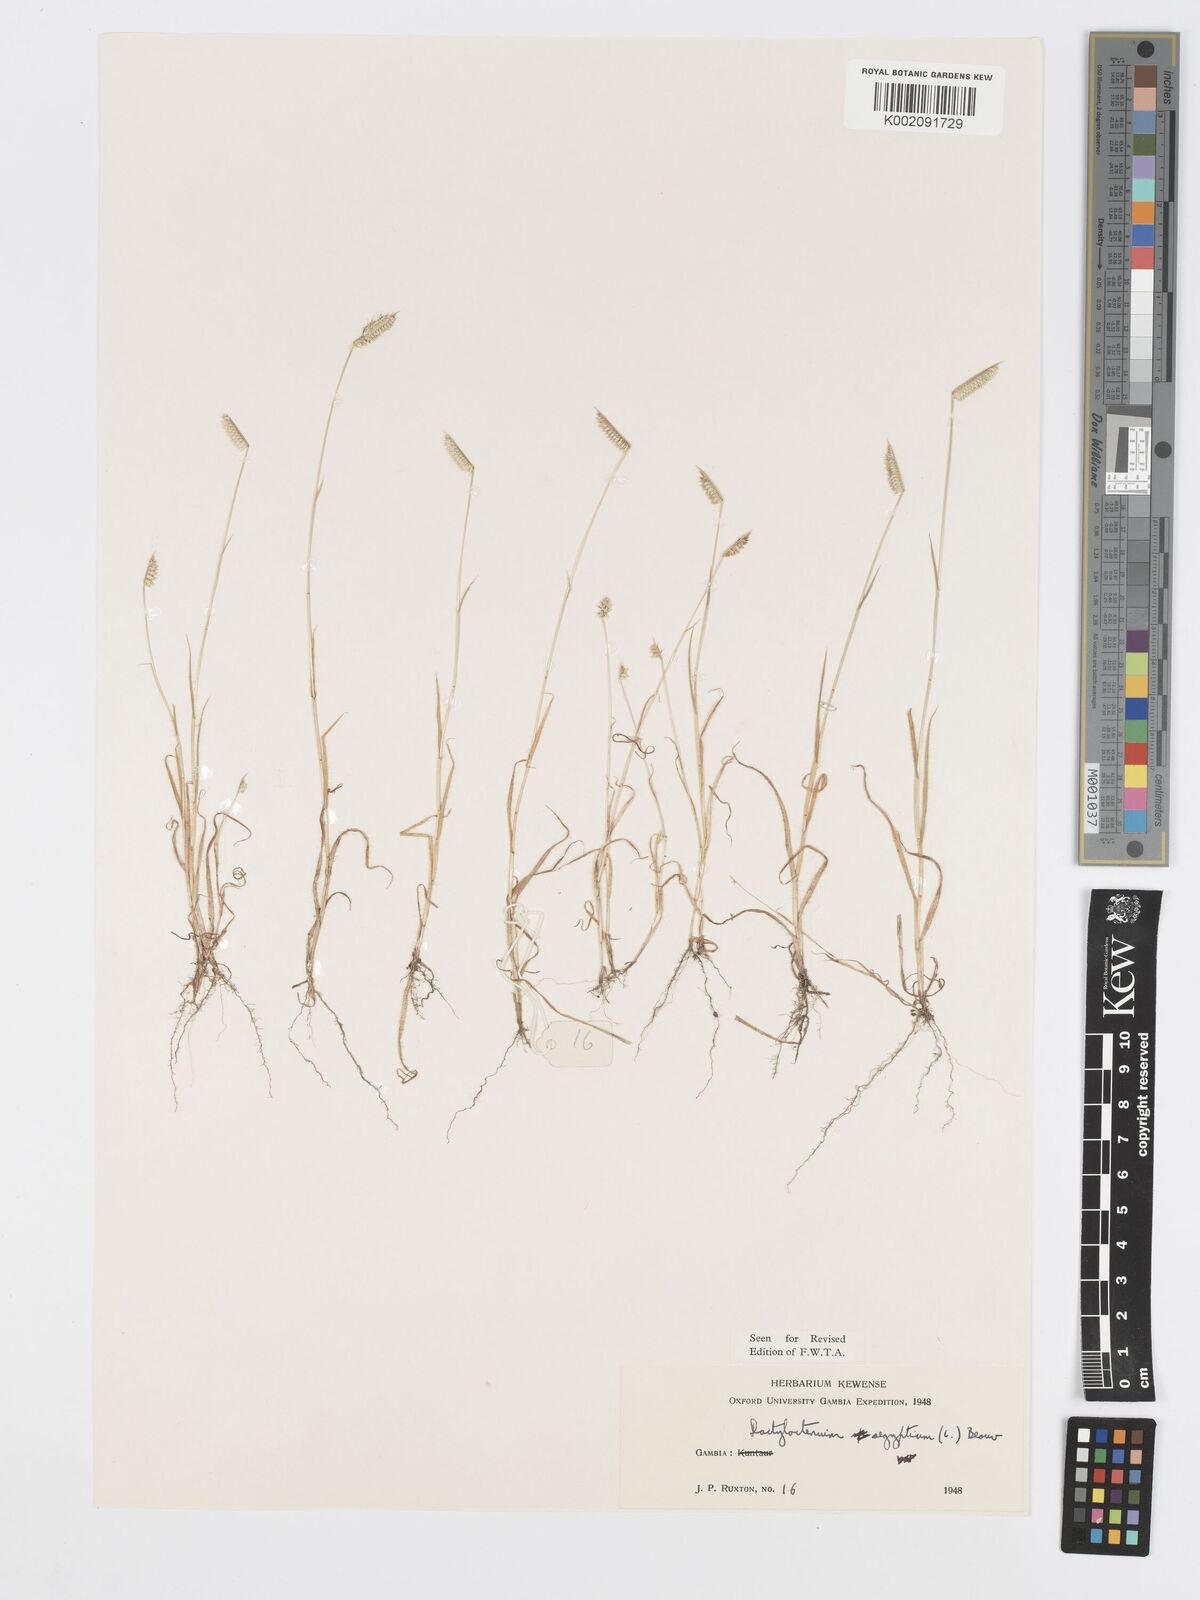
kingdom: Plantae
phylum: Tracheophyta
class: Liliopsida
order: Poales
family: Poaceae
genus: Dactyloctenium
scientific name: Dactyloctenium aegyptium
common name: Egyptian grass
